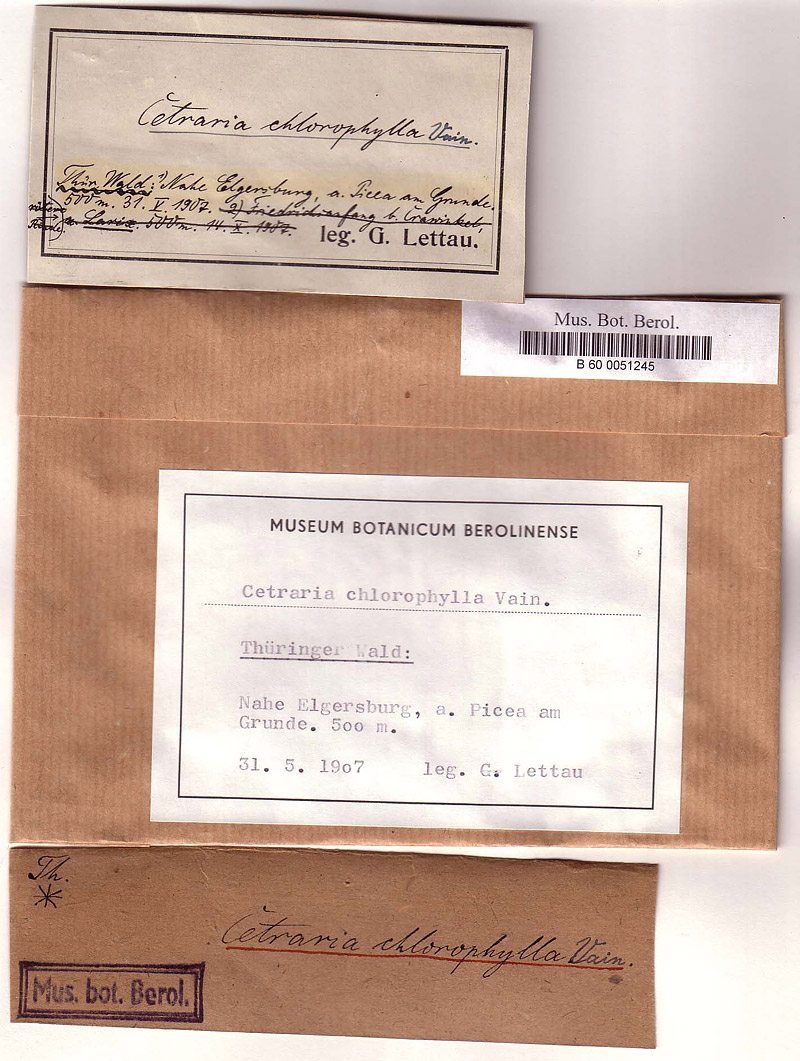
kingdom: Fungi
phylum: Ascomycota
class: Lecanoromycetes
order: Lecanorales
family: Parmeliaceae
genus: Nephromopsis
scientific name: Nephromopsis chlorophylla
